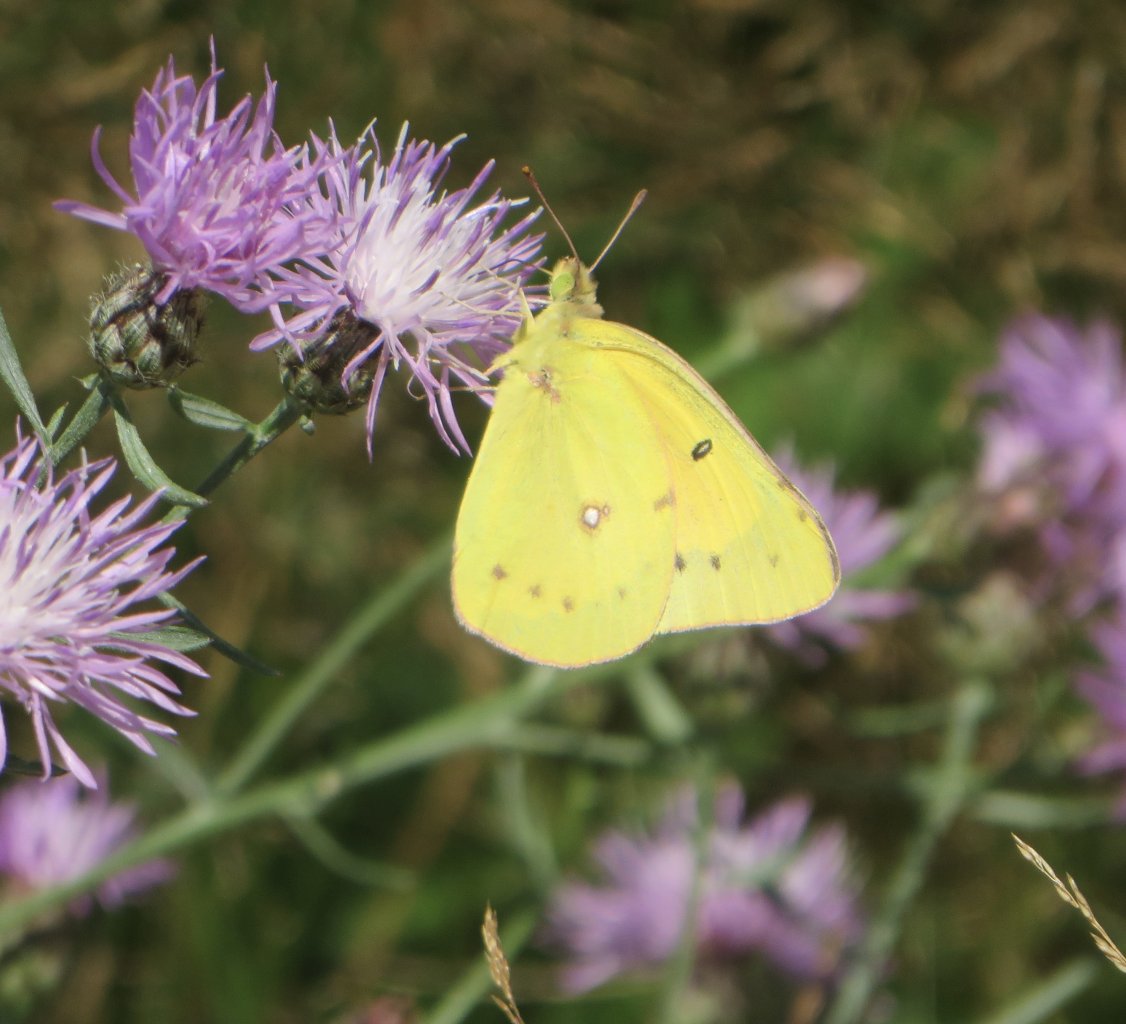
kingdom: Animalia
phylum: Arthropoda
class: Insecta
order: Lepidoptera
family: Pieridae
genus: Colias
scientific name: Colias eurytheme
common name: Orange Sulphur
